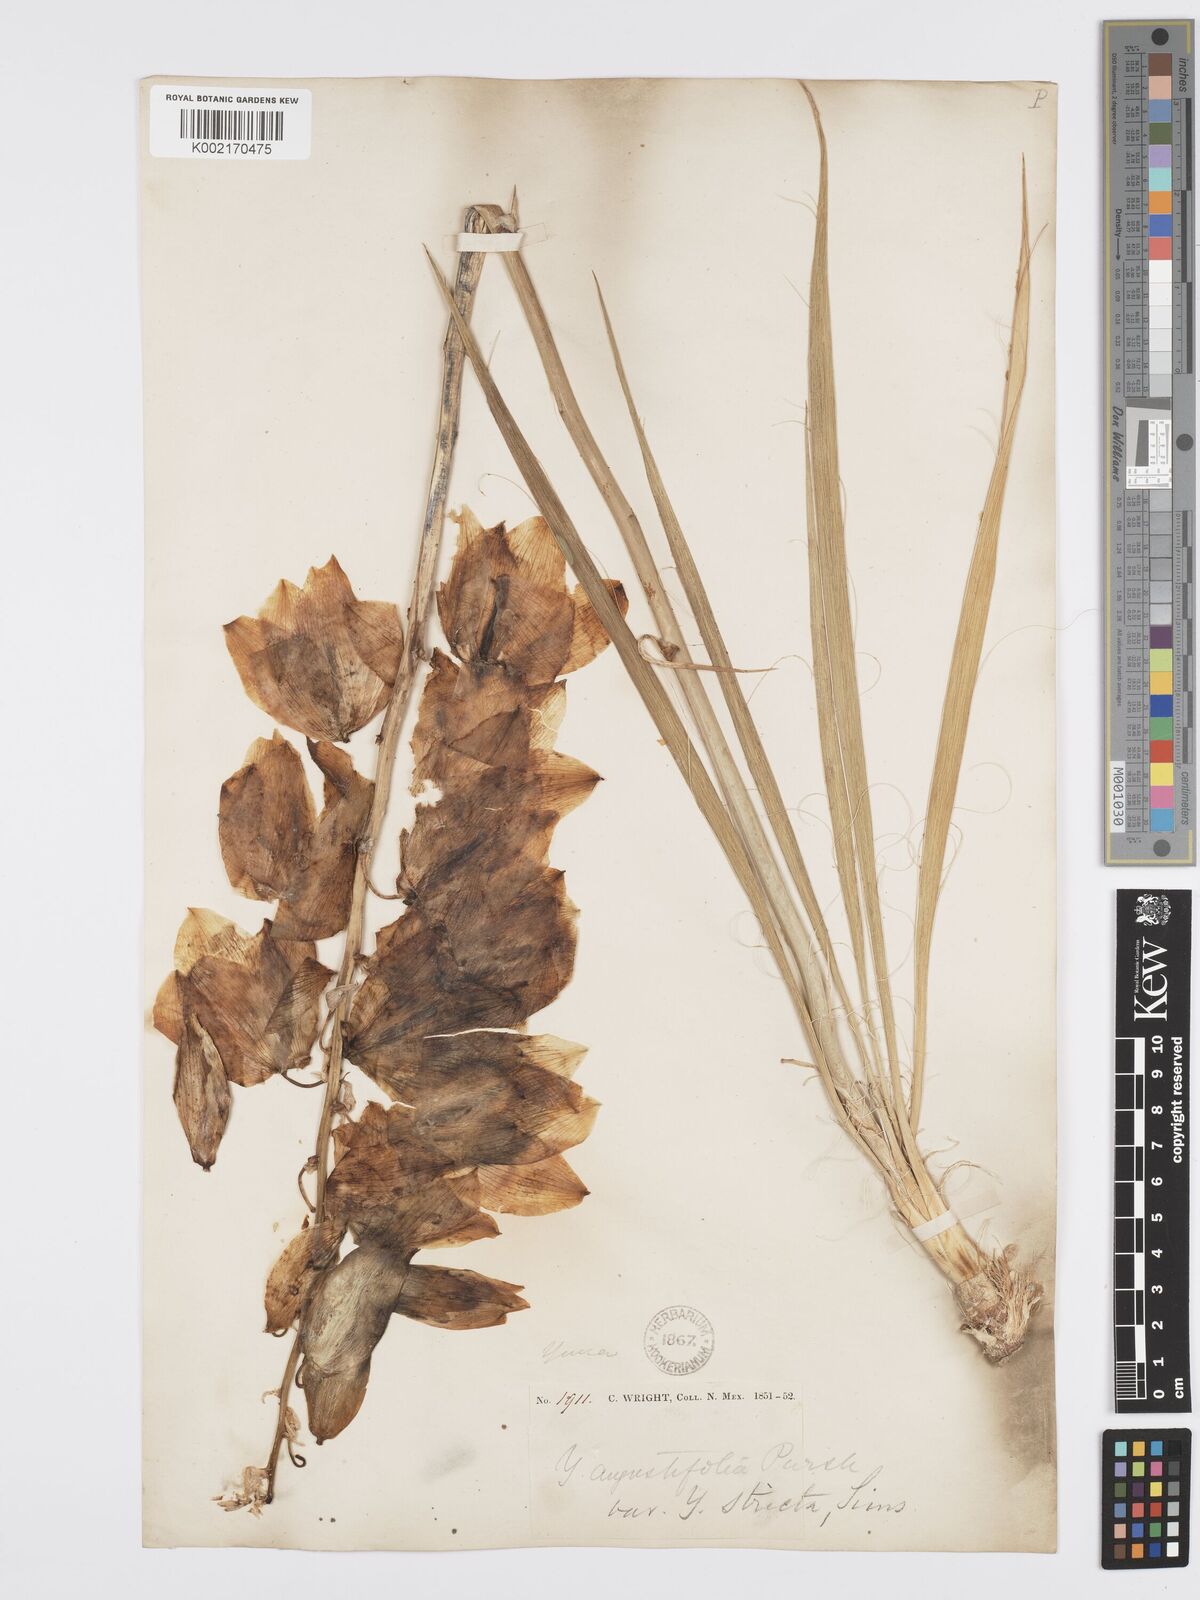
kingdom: Plantae
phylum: Tracheophyta
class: Liliopsida
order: Asparagales
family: Asparagaceae
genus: Yucca
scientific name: Yucca glauca
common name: Great plains yucca
